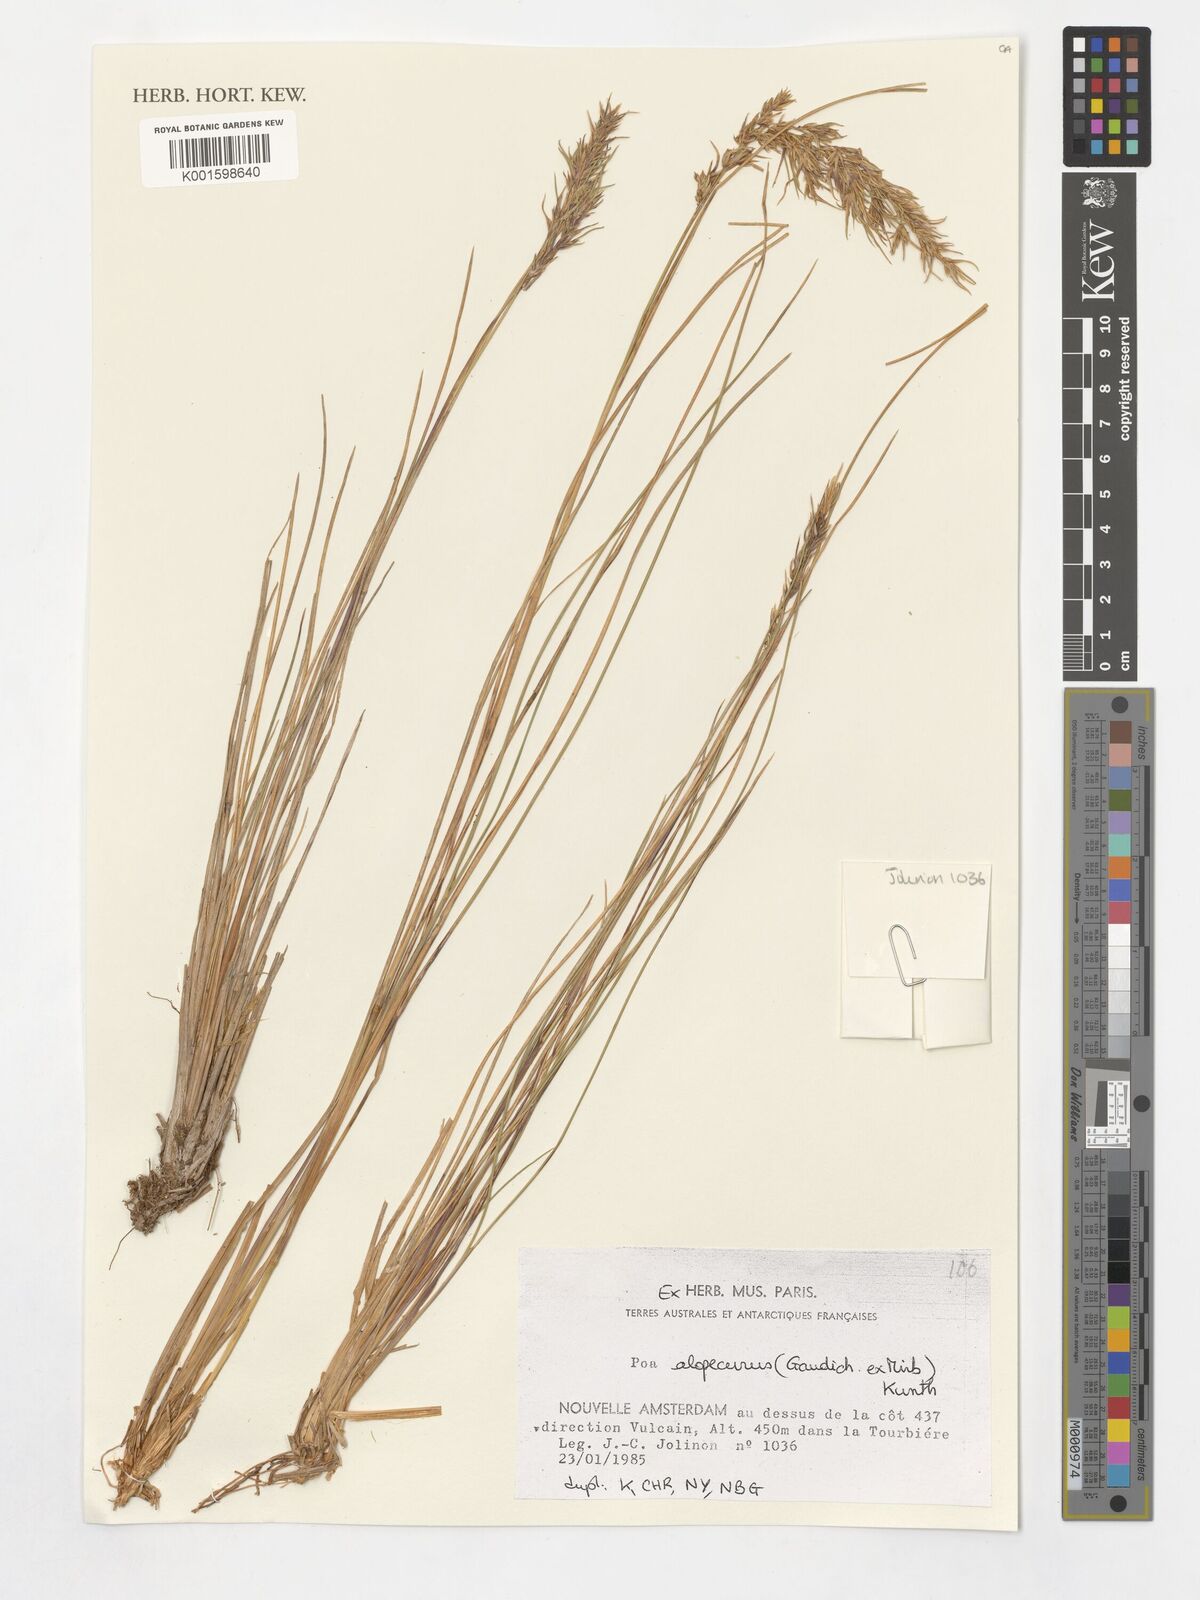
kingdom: Plantae
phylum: Tracheophyta
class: Liliopsida
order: Poales
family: Poaceae
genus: Poa
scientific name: Poa alopecurus
